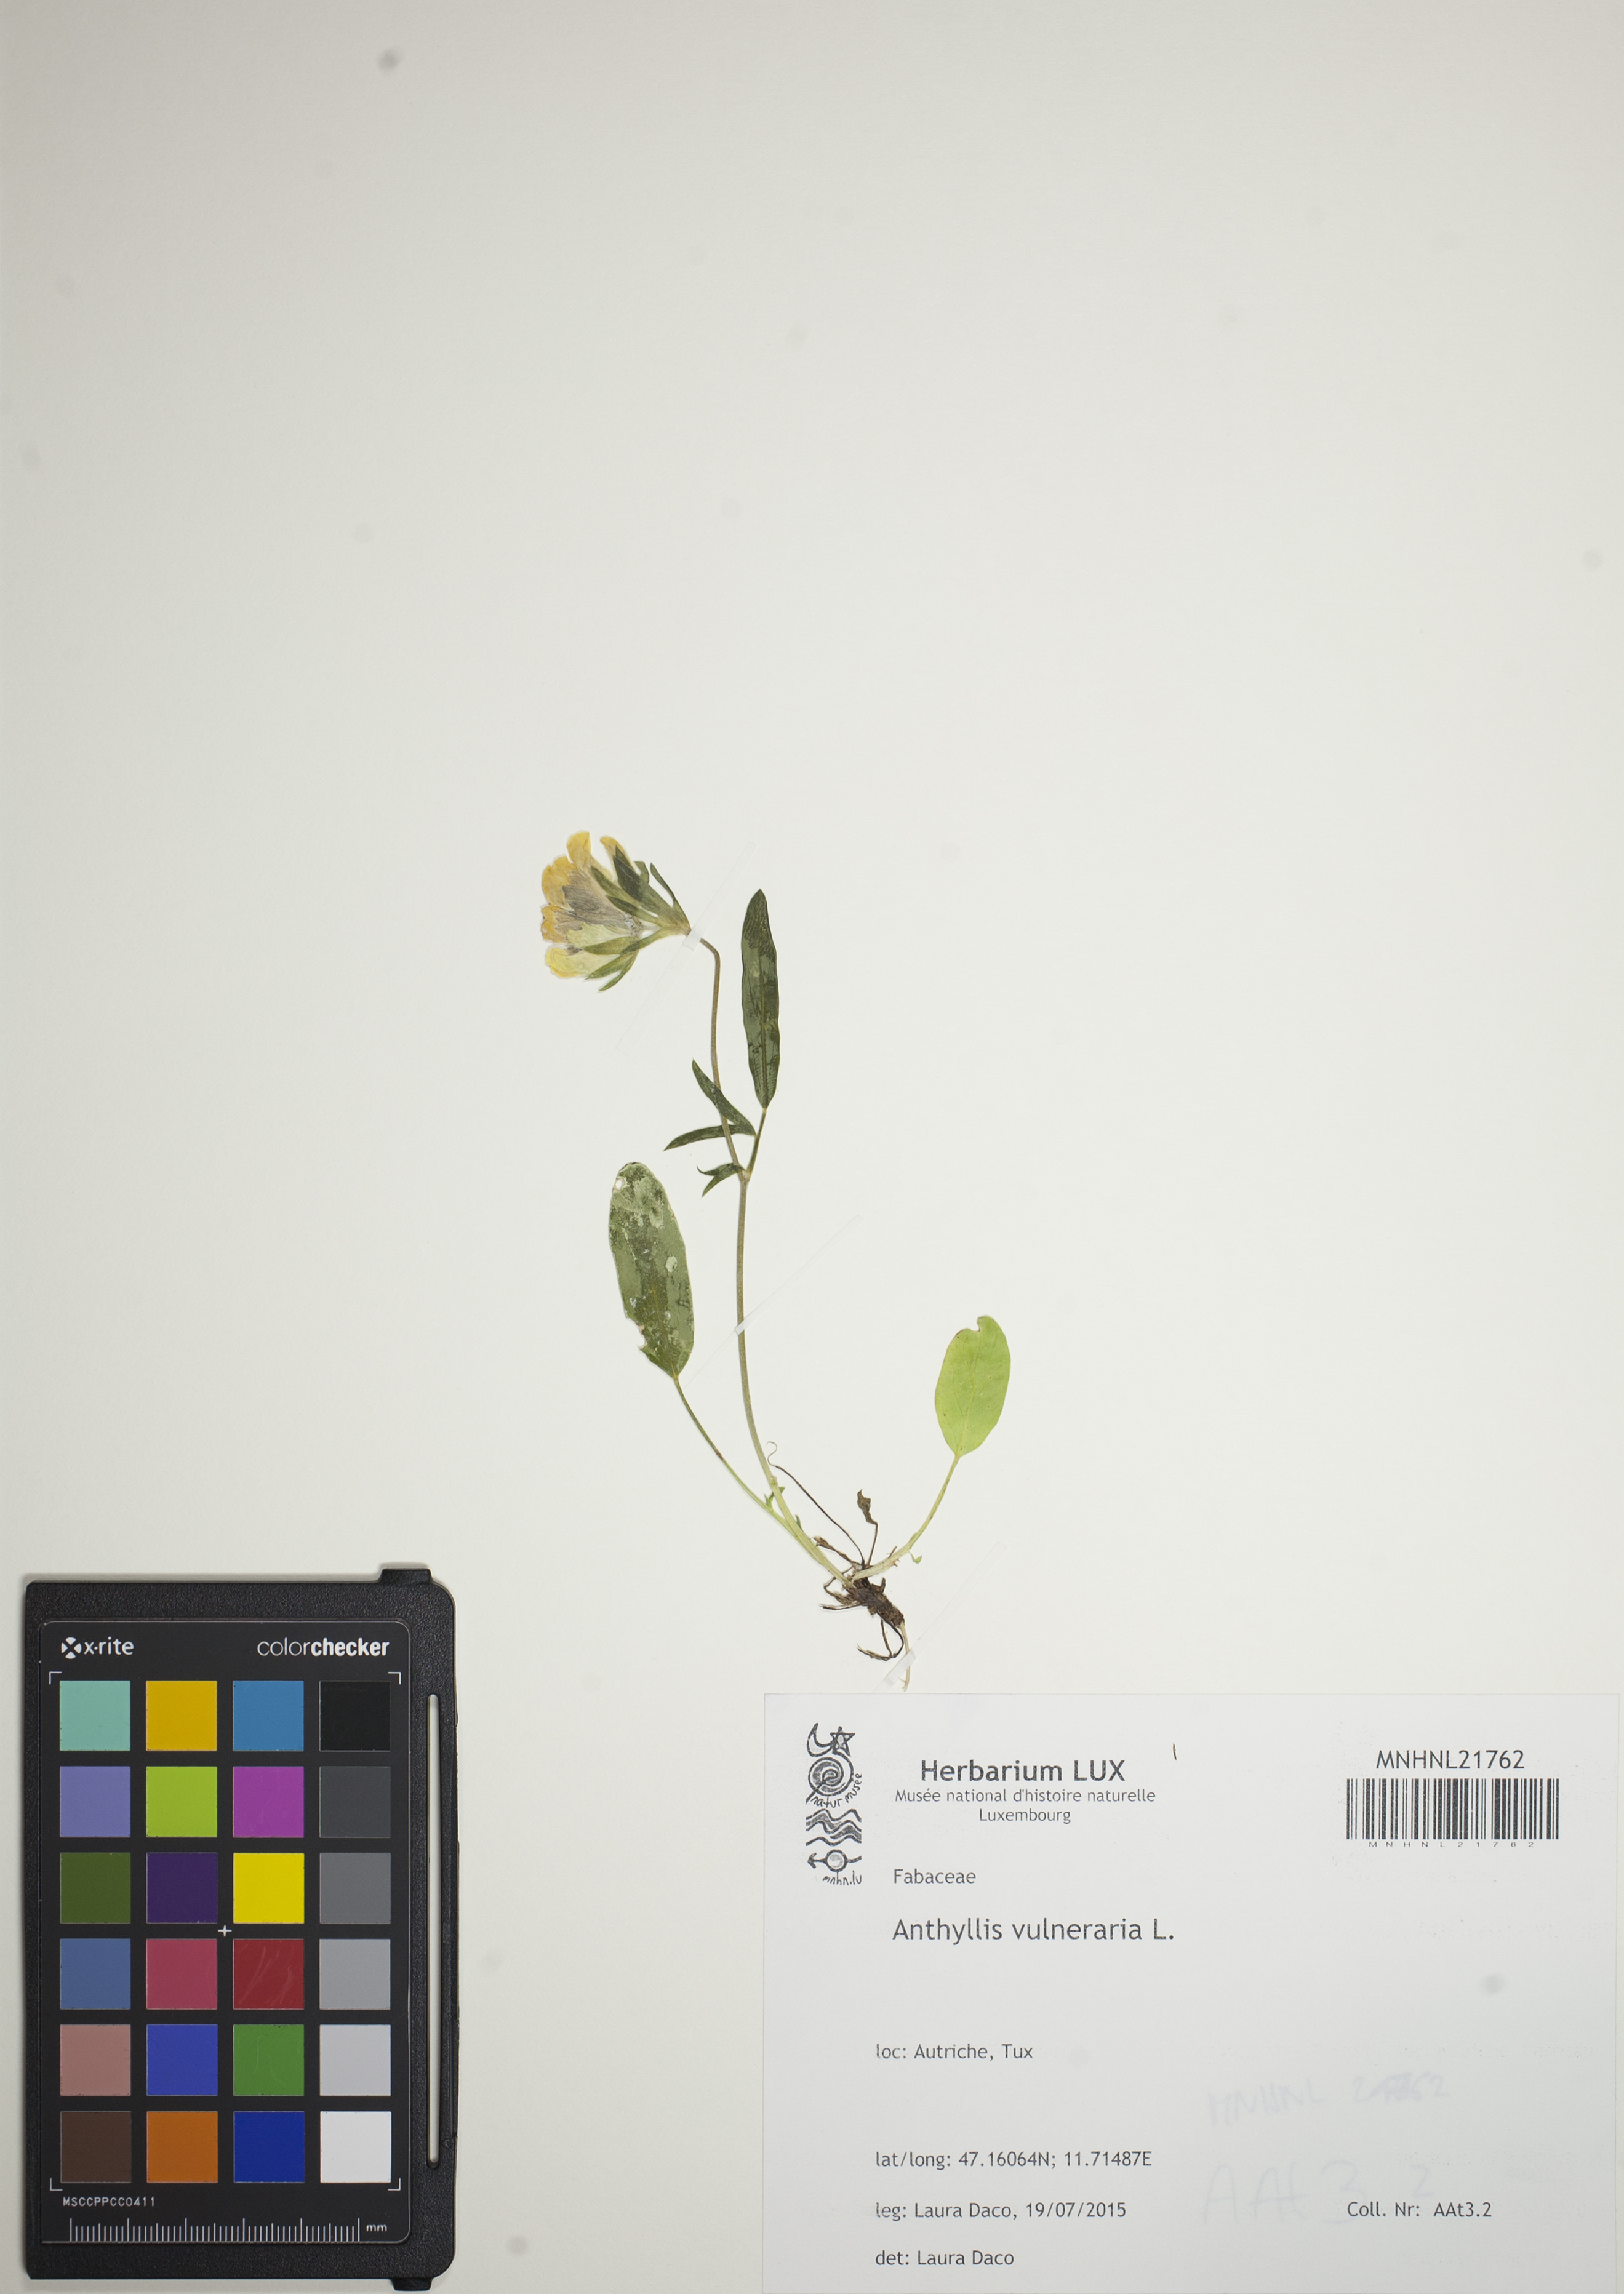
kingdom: Plantae
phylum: Tracheophyta
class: Magnoliopsida
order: Fabales
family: Fabaceae
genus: Anthyllis
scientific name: Anthyllis vulneraria
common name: Kidney vetch
